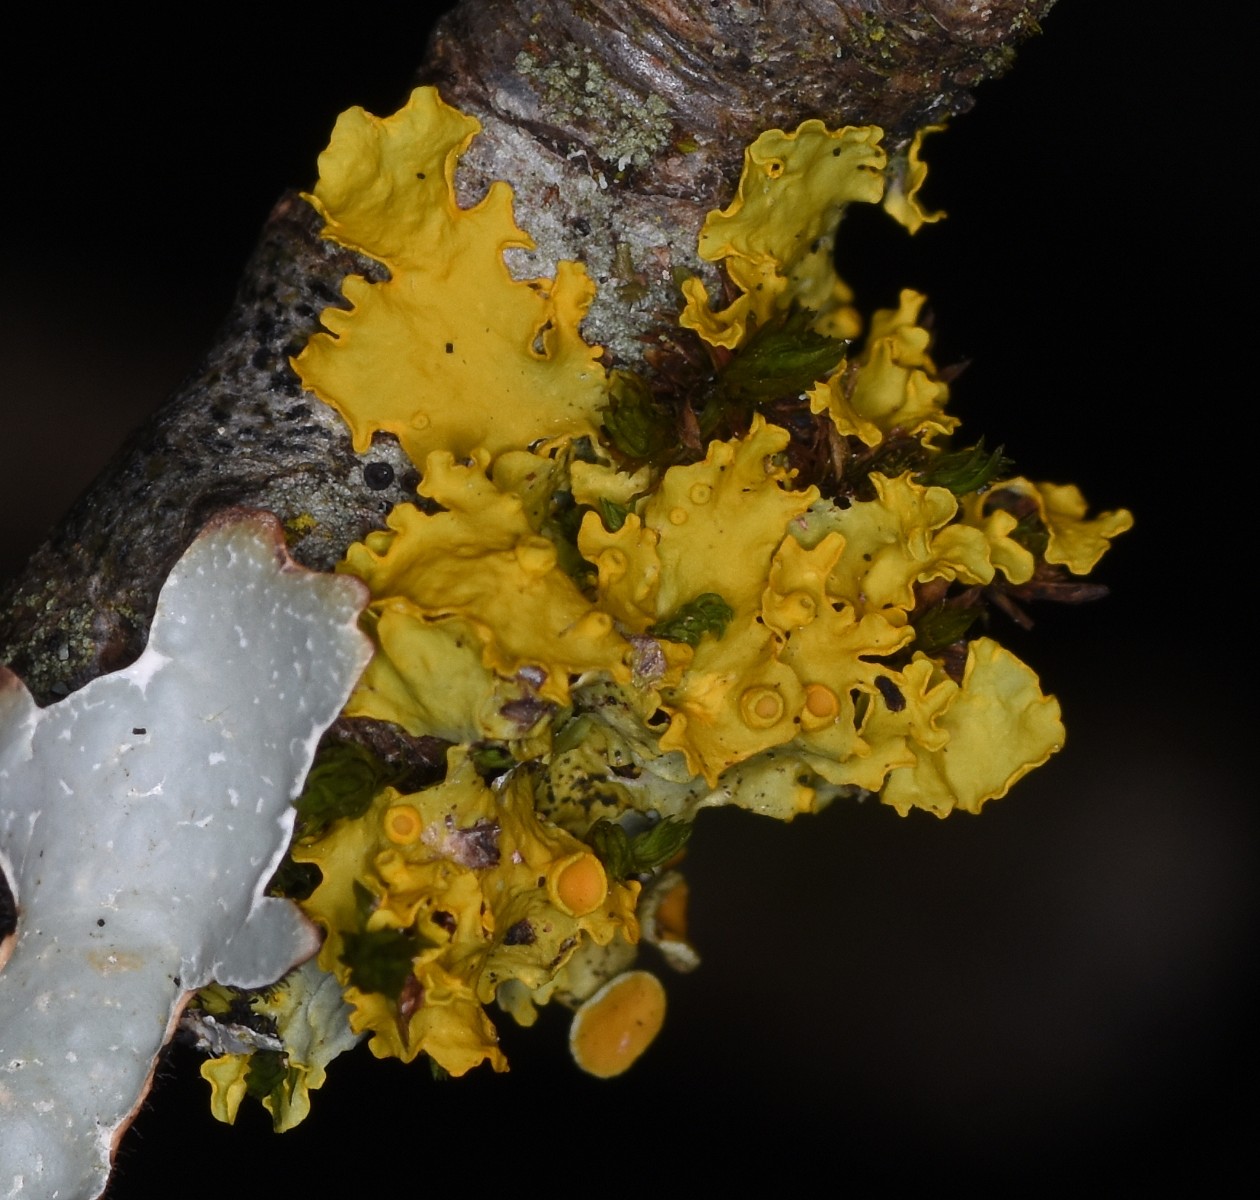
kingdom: Fungi
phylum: Ascomycota
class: Lecanoromycetes
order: Teloschistales
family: Teloschistaceae
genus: Xanthoria
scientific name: Xanthoria parietina
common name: almindelig væggelav
